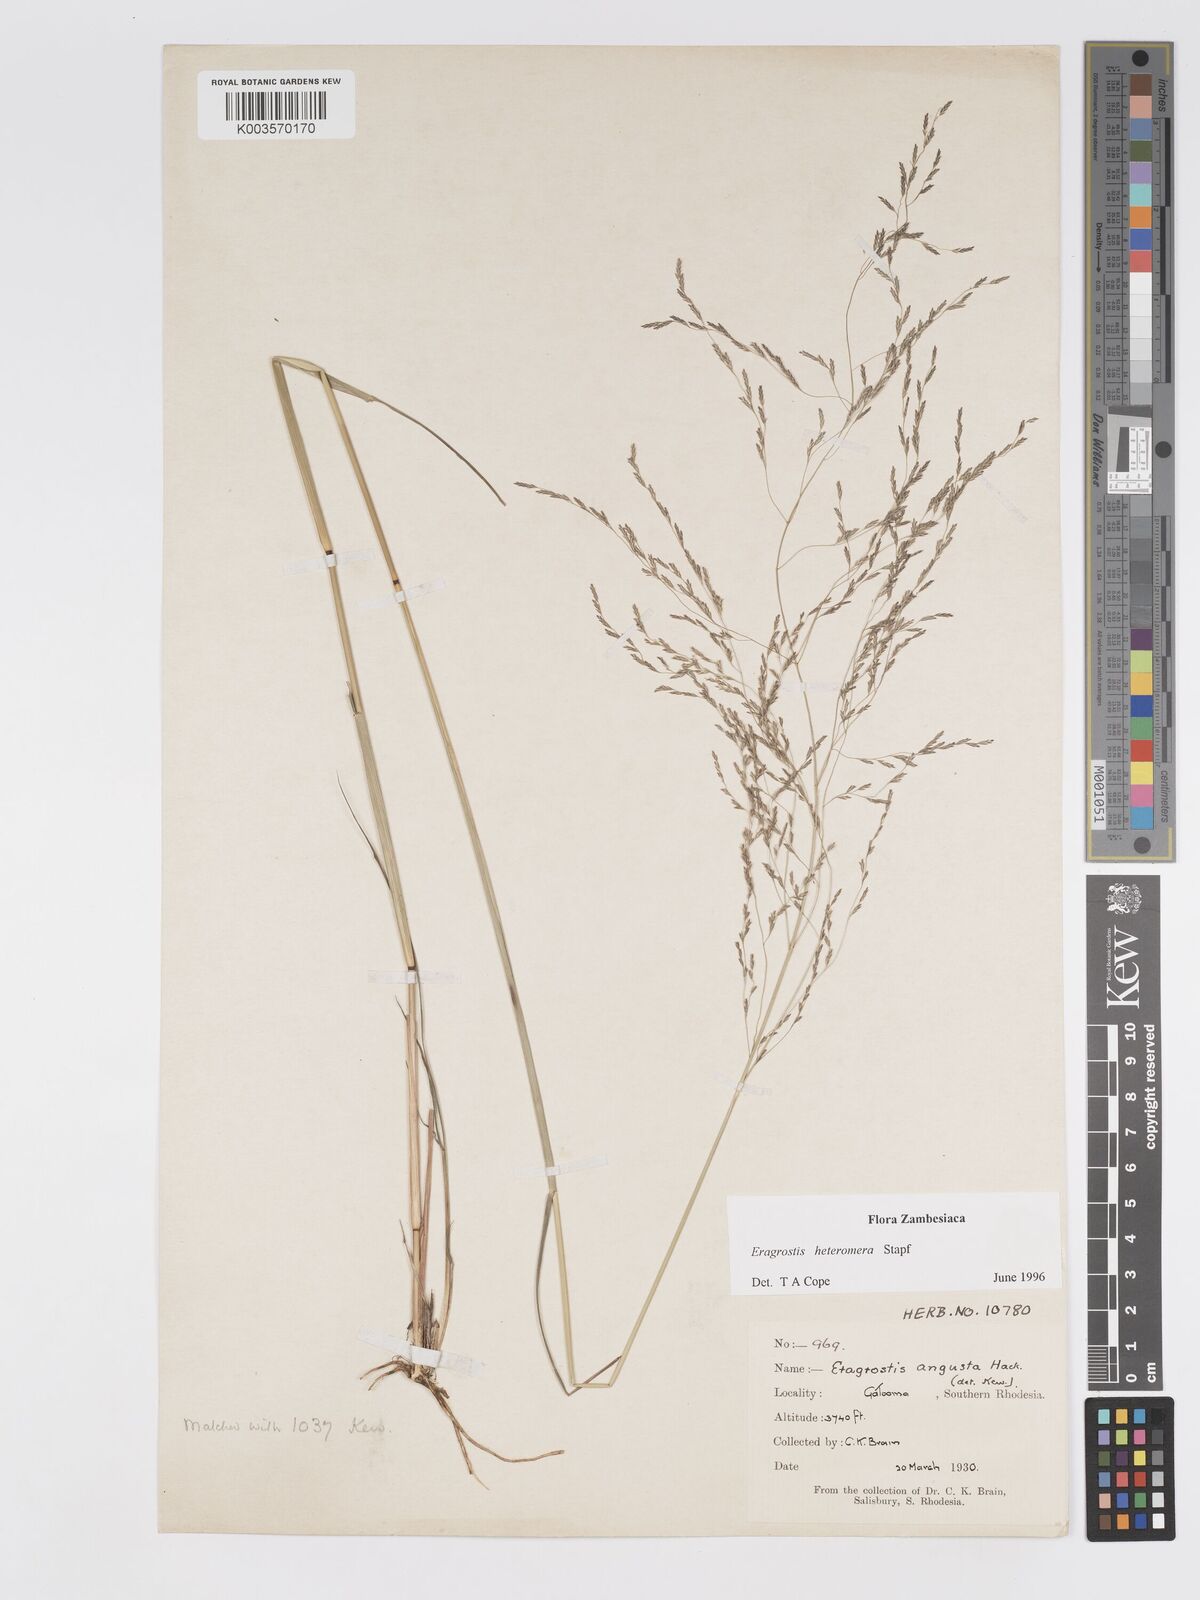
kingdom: Plantae
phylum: Tracheophyta
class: Liliopsida
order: Poales
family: Poaceae
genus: Eragrostis
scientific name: Eragrostis heteromera
